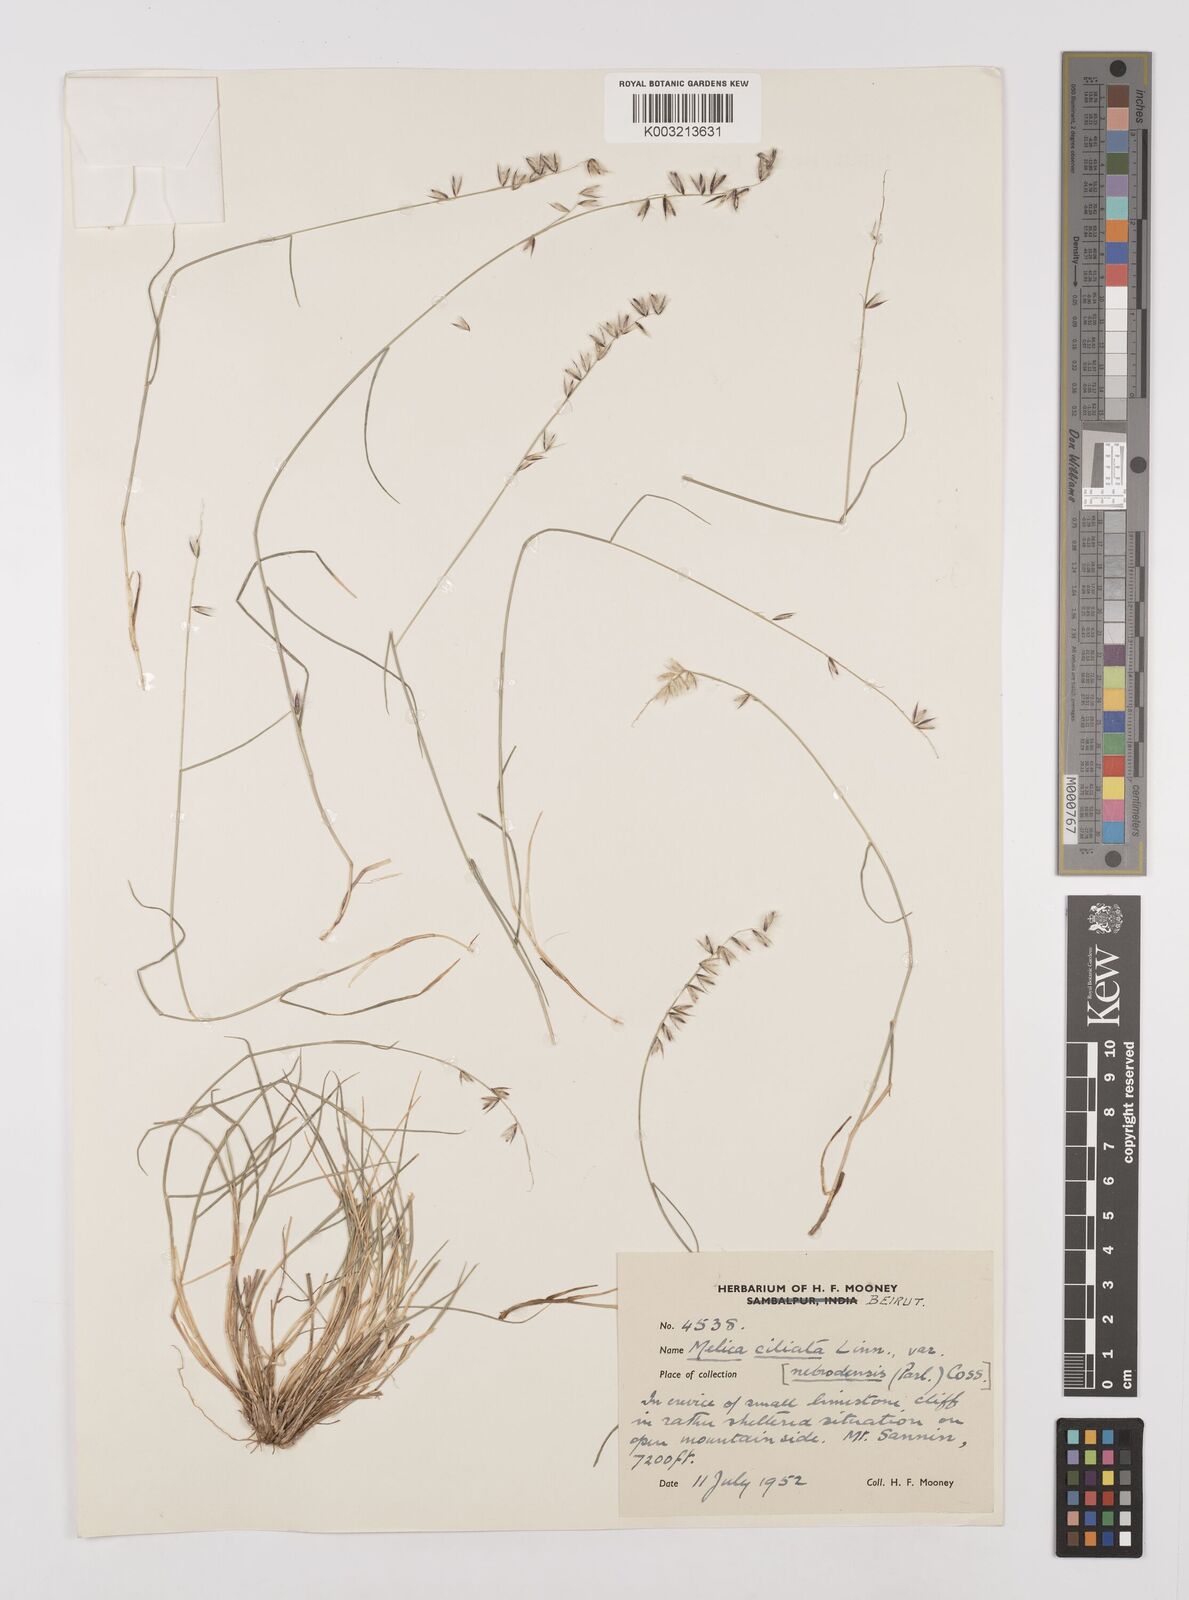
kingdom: Plantae
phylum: Tracheophyta
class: Liliopsida
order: Poales
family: Poaceae
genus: Melica
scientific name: Melica ciliata
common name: Hairy melicgrass
